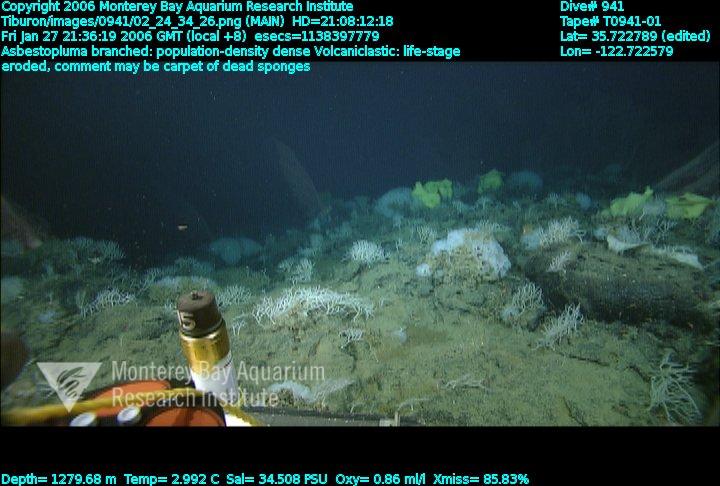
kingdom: Animalia
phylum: Porifera
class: Demospongiae
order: Poecilosclerida
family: Cladorhizidae
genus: Asbestopluma
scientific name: Asbestopluma monticola
